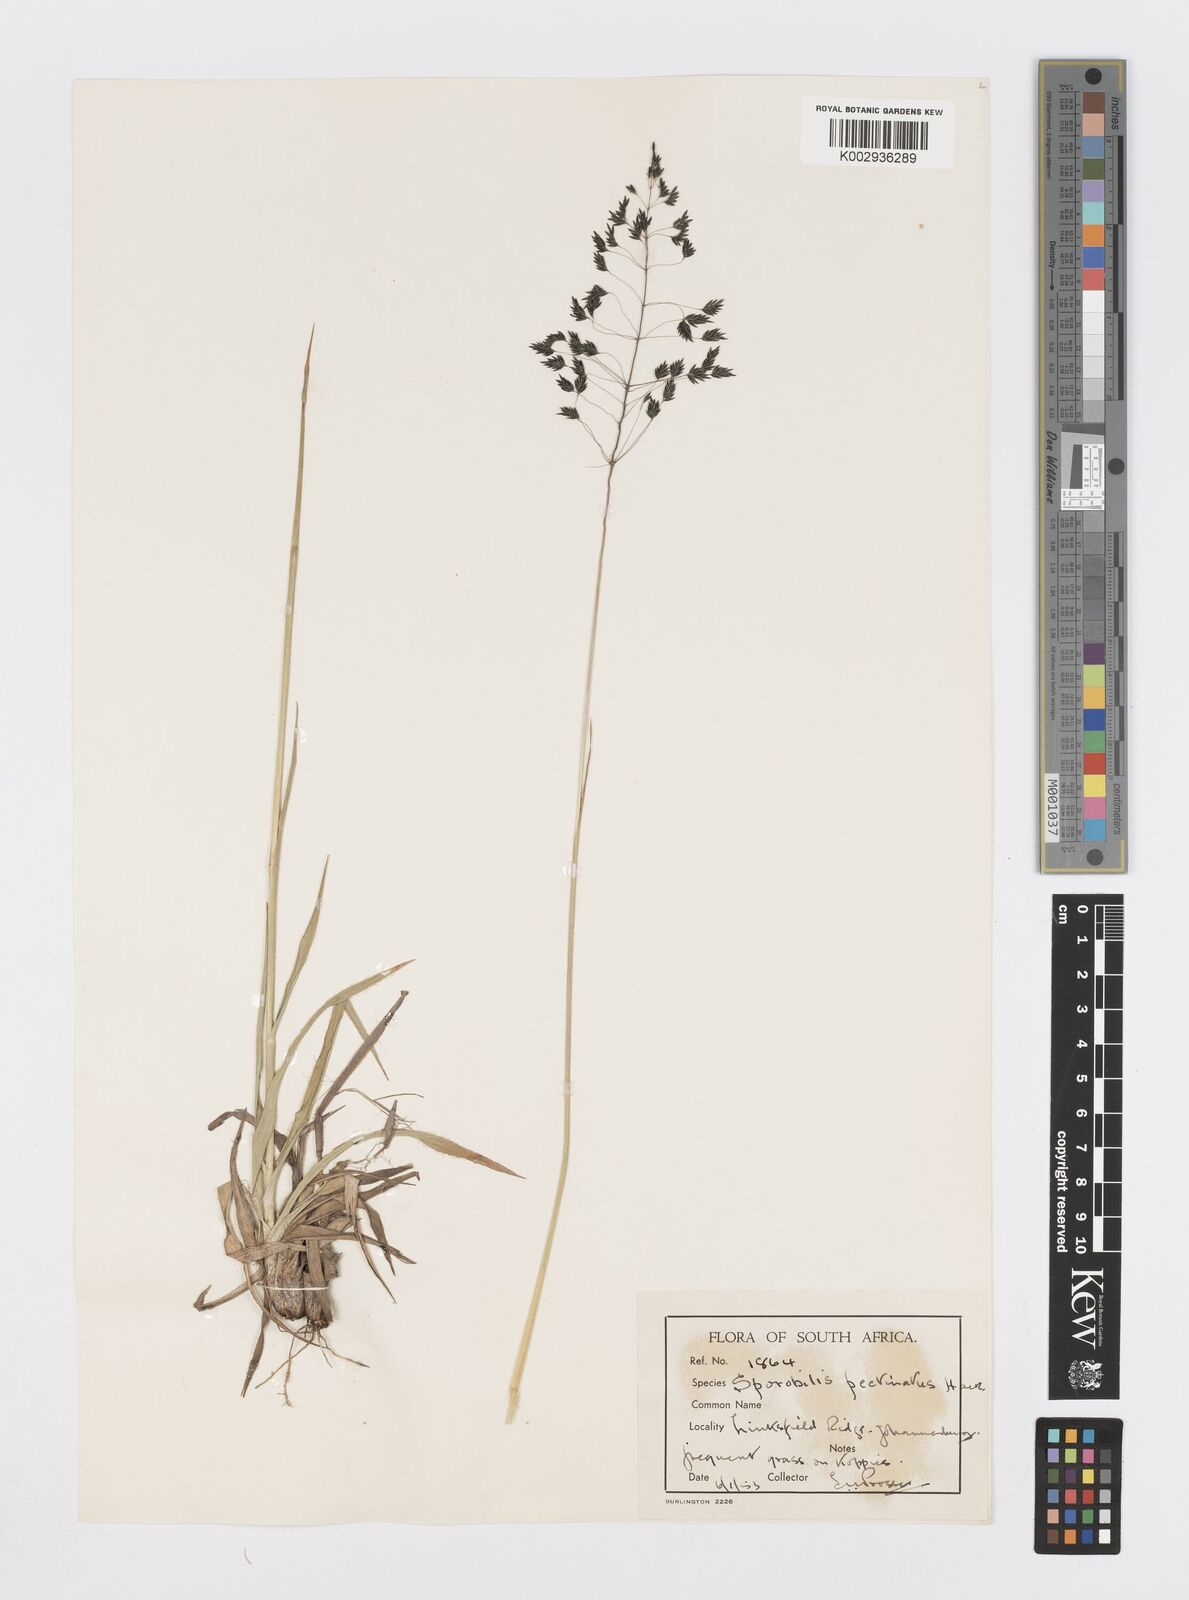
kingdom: Plantae
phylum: Tracheophyta
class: Liliopsida
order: Poales
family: Poaceae
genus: Sporobolus
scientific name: Sporobolus pectinatus
